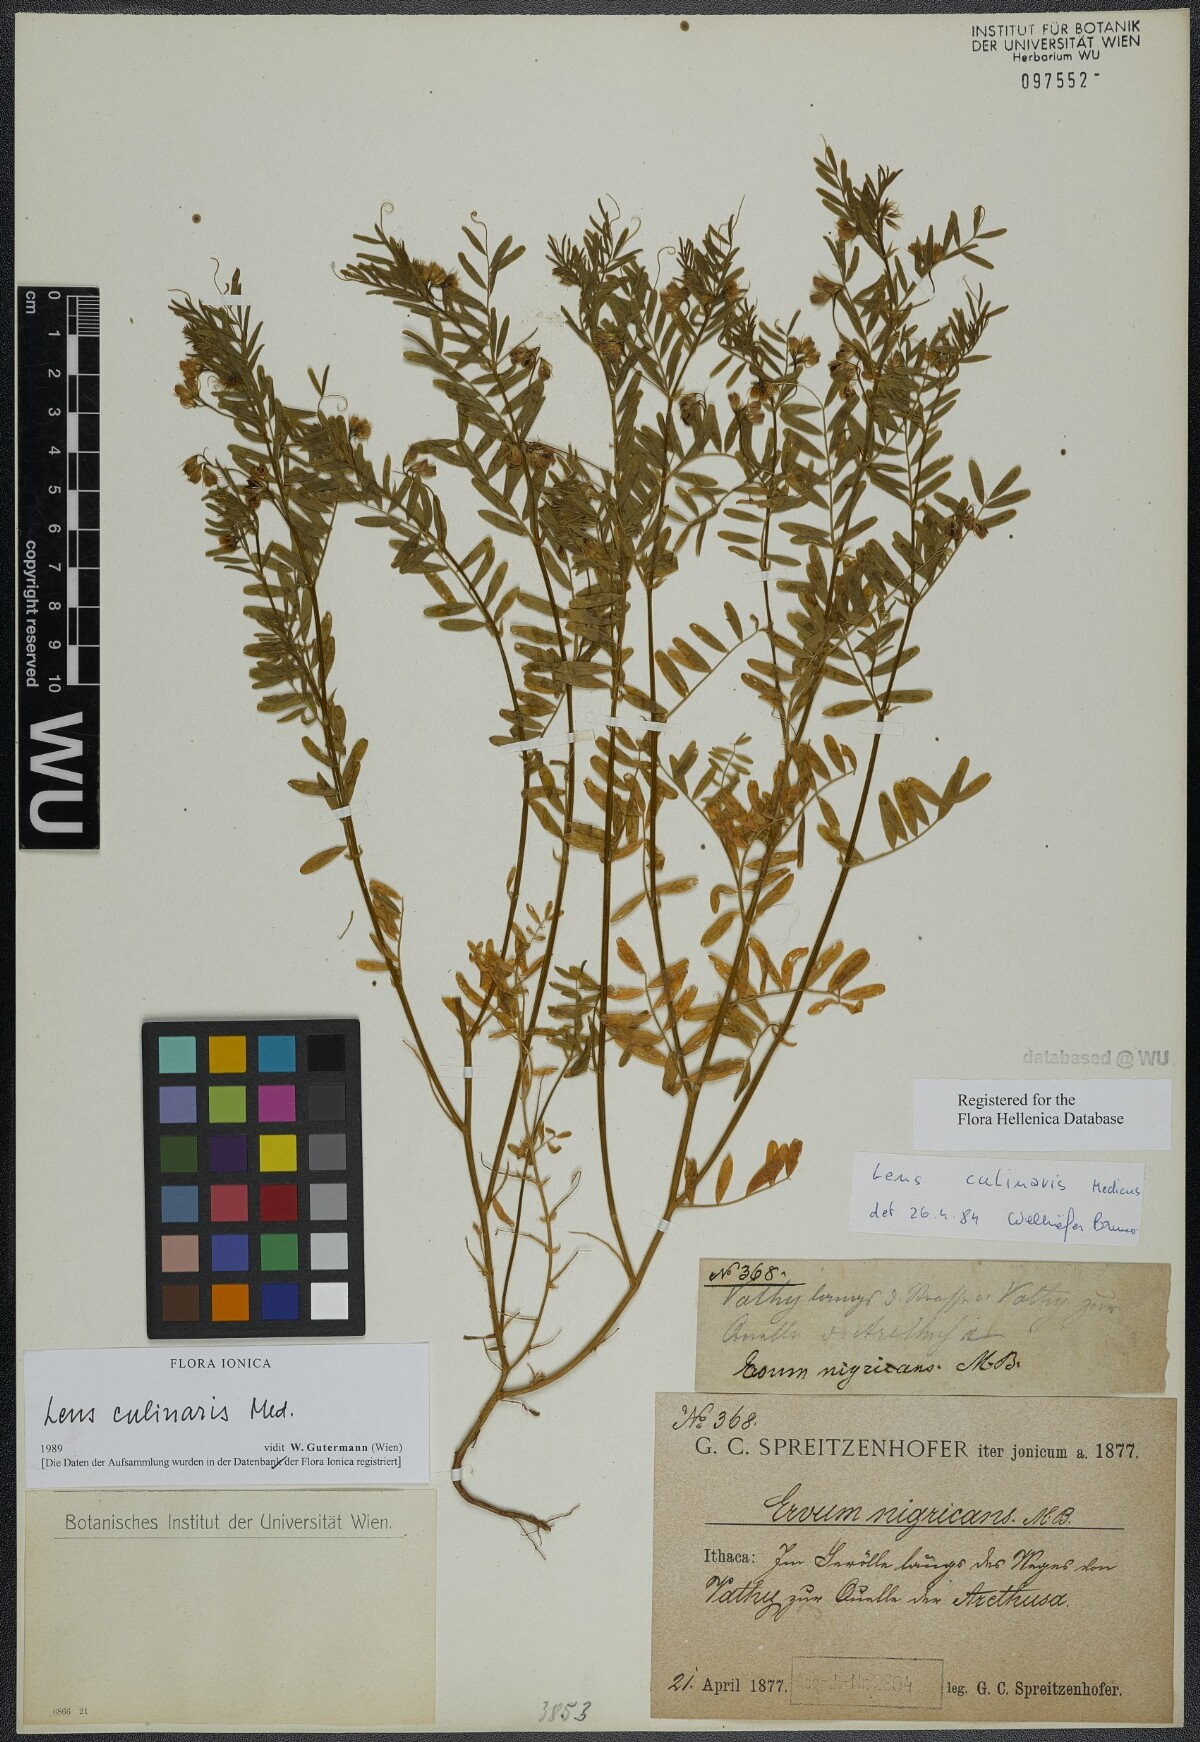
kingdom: Plantae
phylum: Tracheophyta
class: Magnoliopsida
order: Fabales
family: Fabaceae
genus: Vicia
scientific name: Vicia lens
